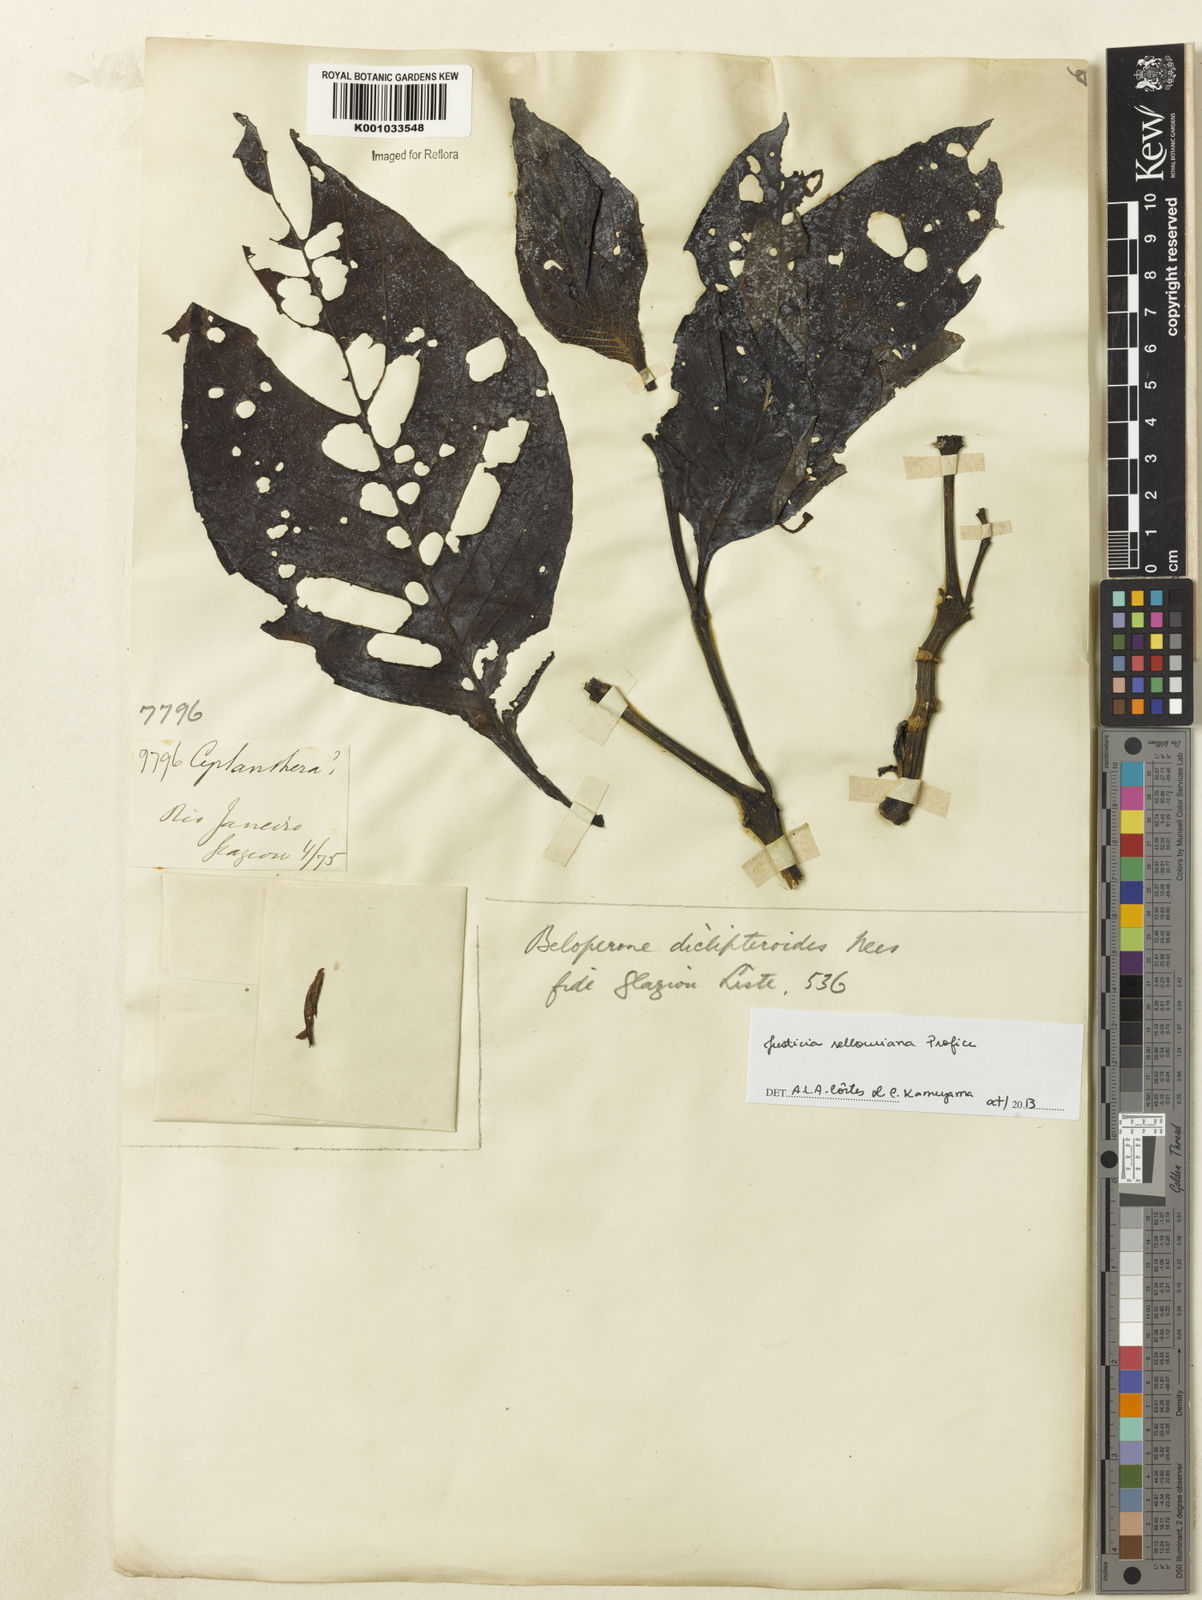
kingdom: Plantae
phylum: Tracheophyta
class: Magnoliopsida
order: Lamiales
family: Acanthaceae
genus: Justicia
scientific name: Justicia sellowiana
